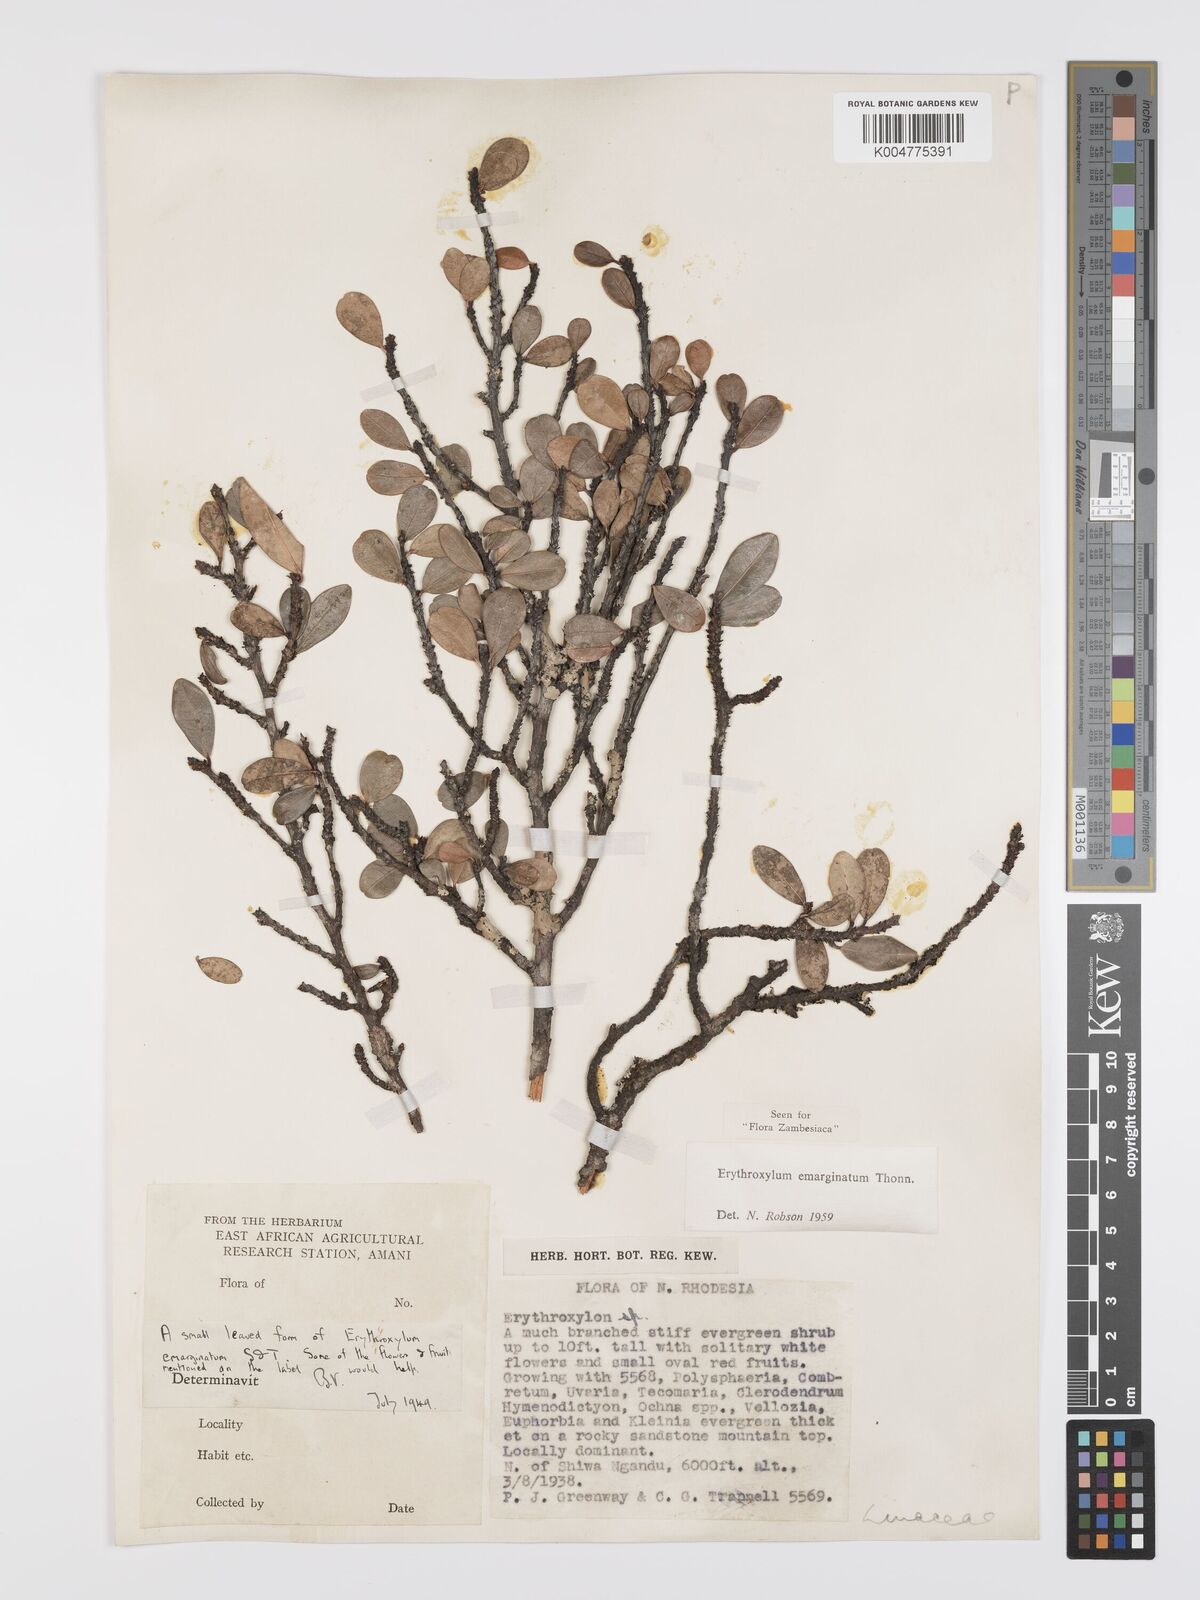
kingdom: Plantae
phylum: Tracheophyta
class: Magnoliopsida
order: Malpighiales
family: Erythroxylaceae
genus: Erythroxylum
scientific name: Erythroxylum emarginatum
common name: African coca-tree
